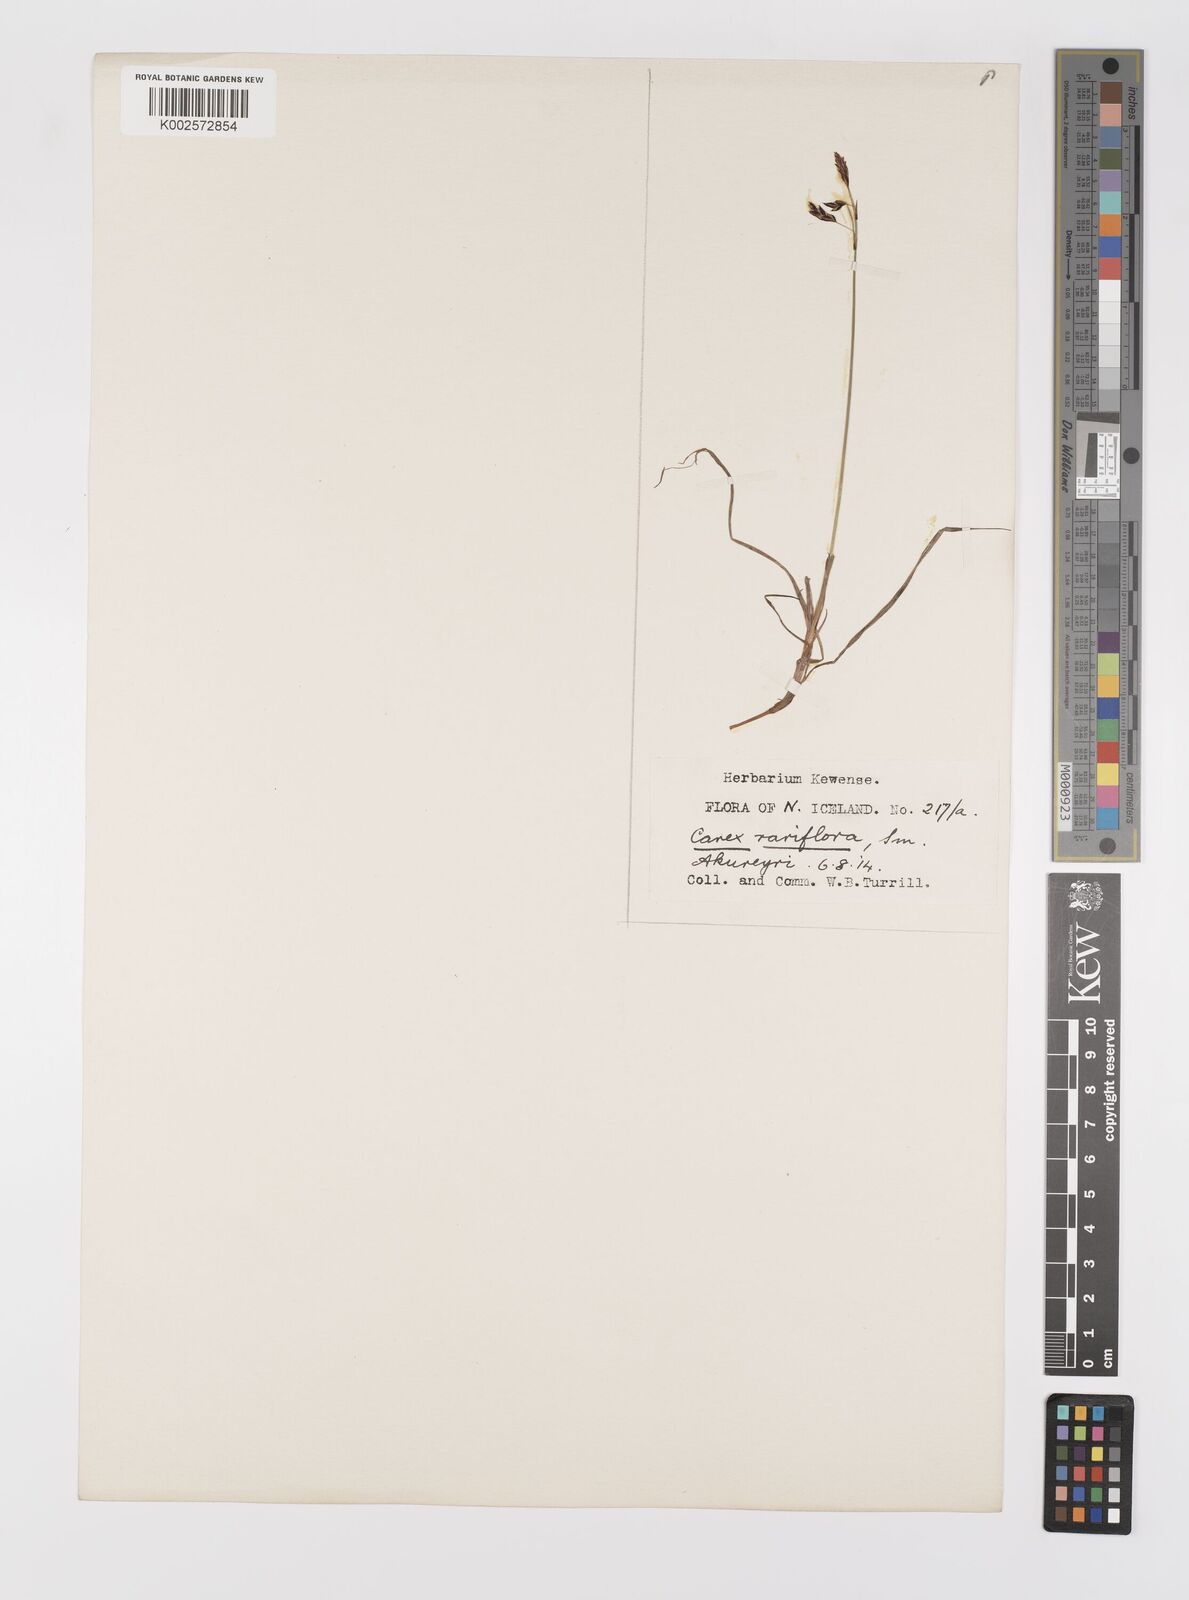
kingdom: Plantae
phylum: Tracheophyta
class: Liliopsida
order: Poales
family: Cyperaceae
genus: Carex
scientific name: Carex rariflora
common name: Loose-flowered alpine sedge
